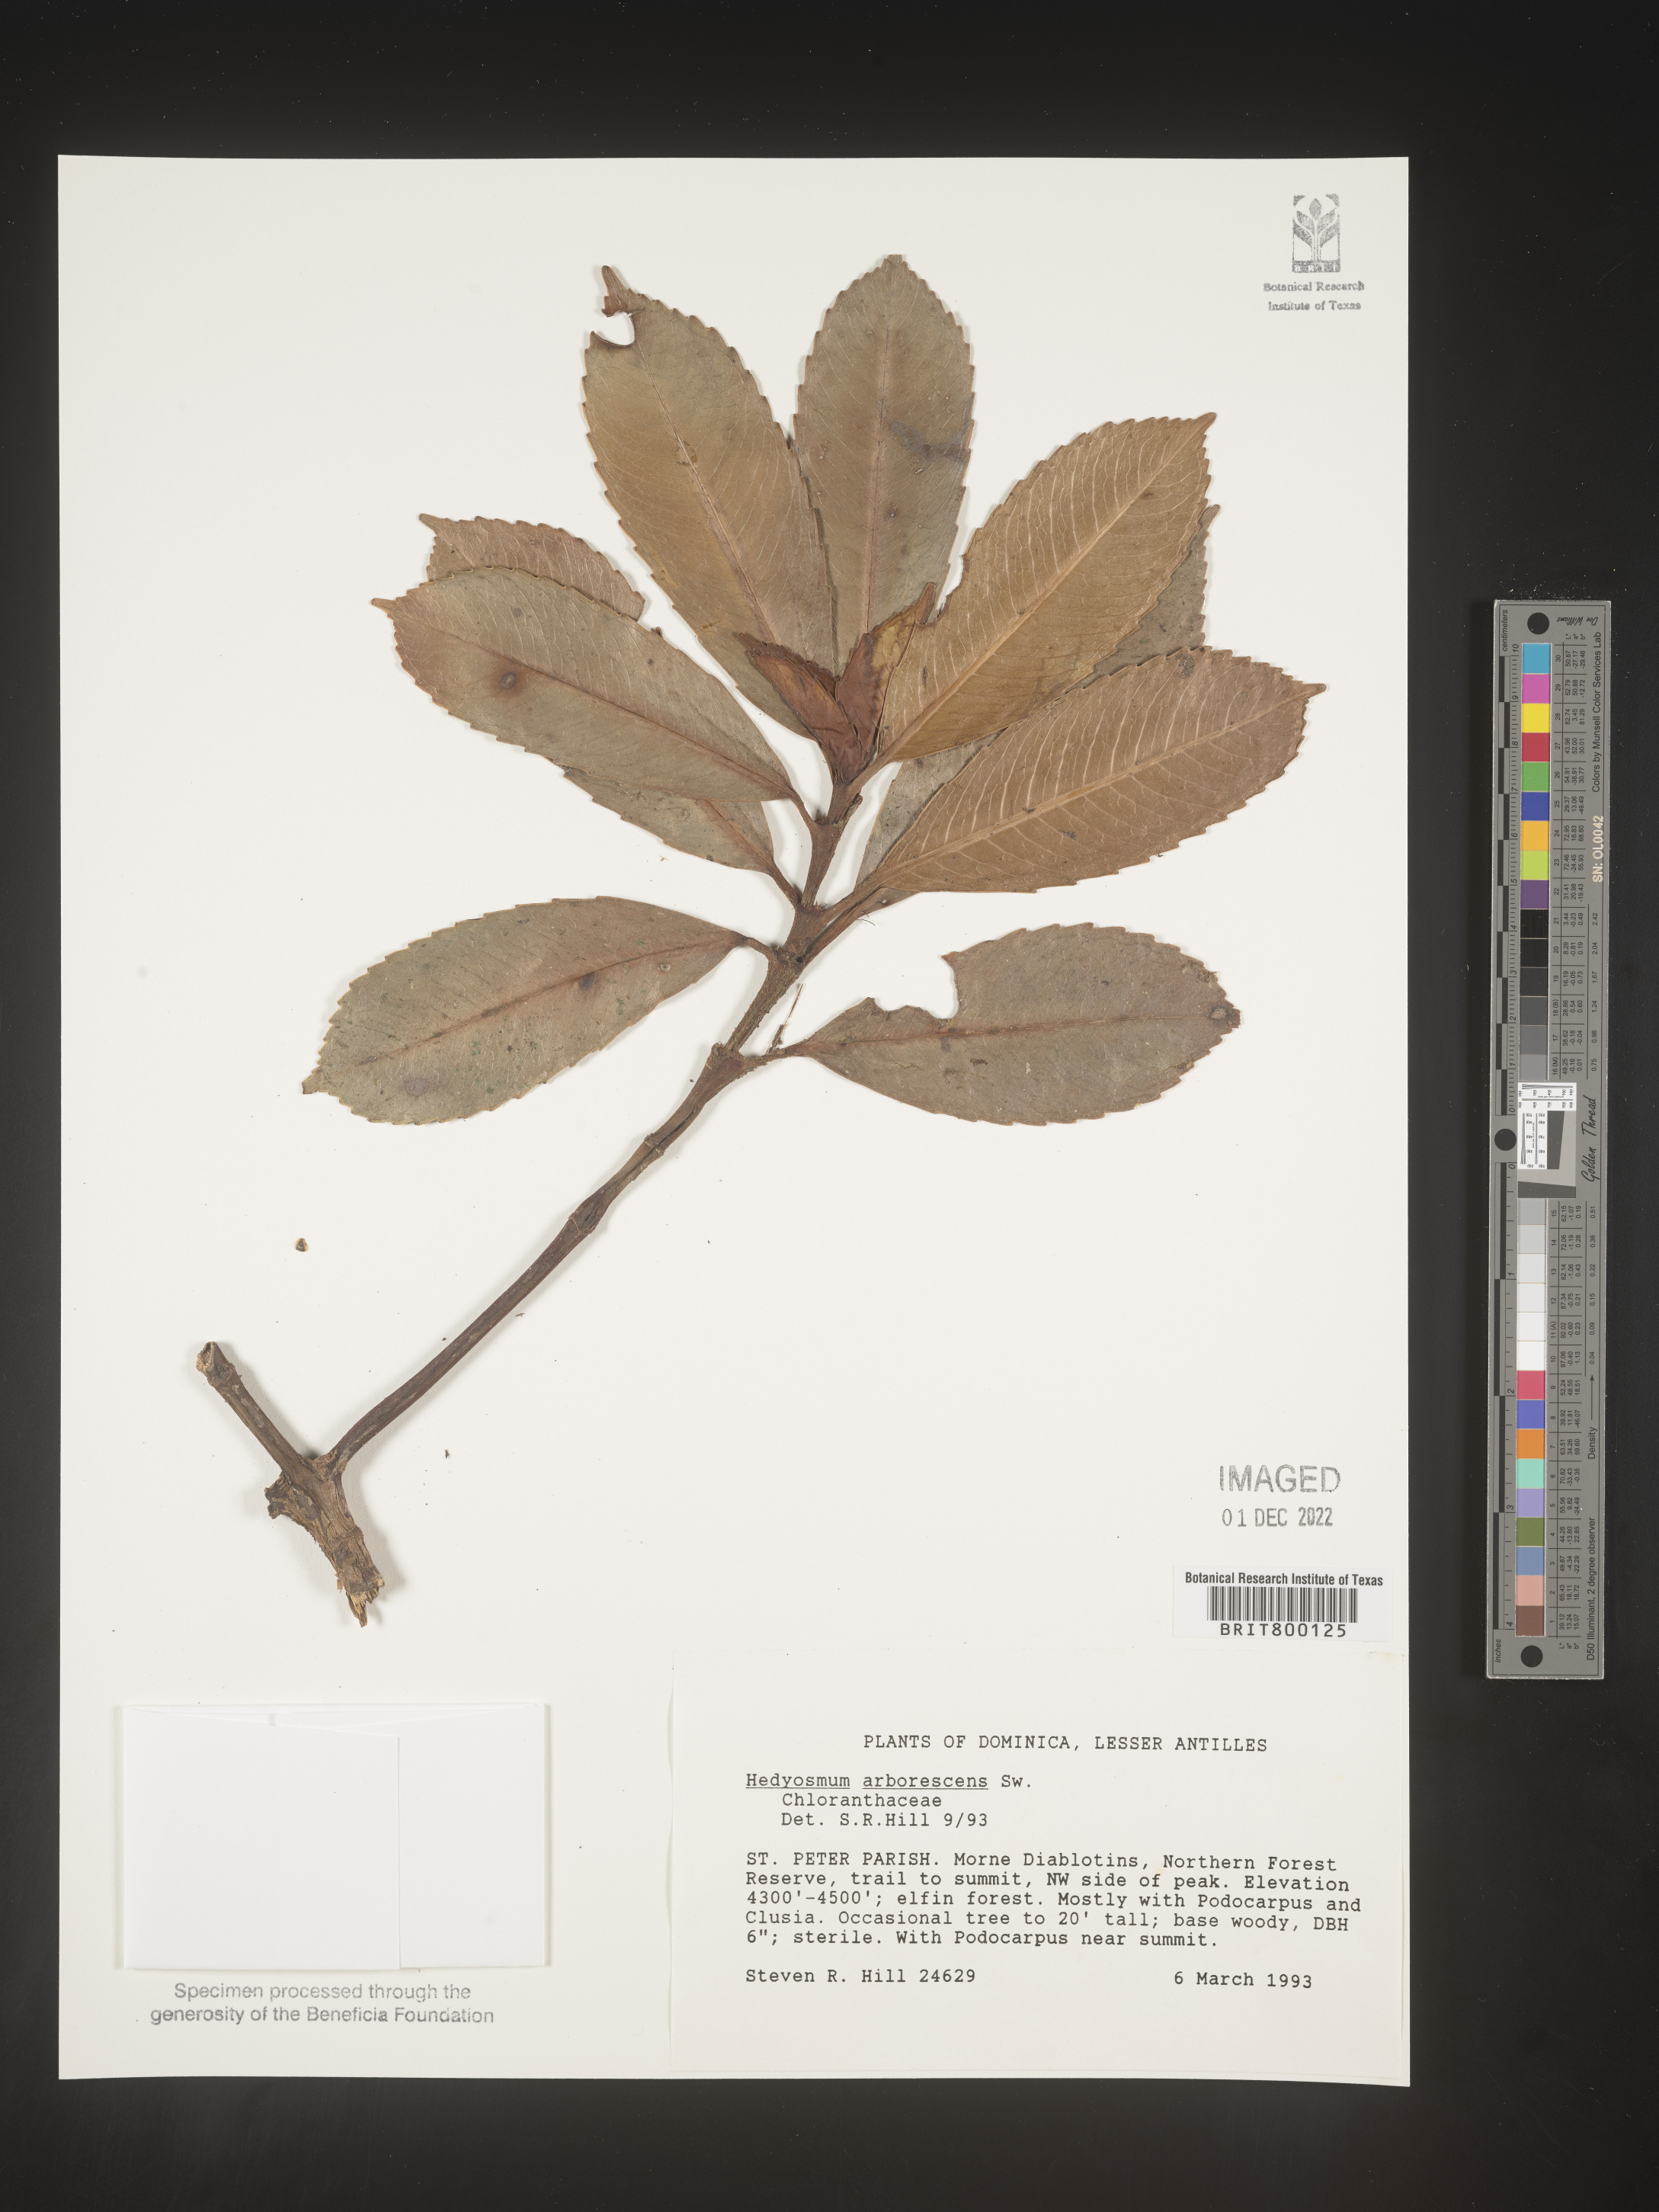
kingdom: Plantae
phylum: Tracheophyta
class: Magnoliopsida
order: Chloranthales
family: Chloranthaceae
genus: Hedyosmum
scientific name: Hedyosmum
